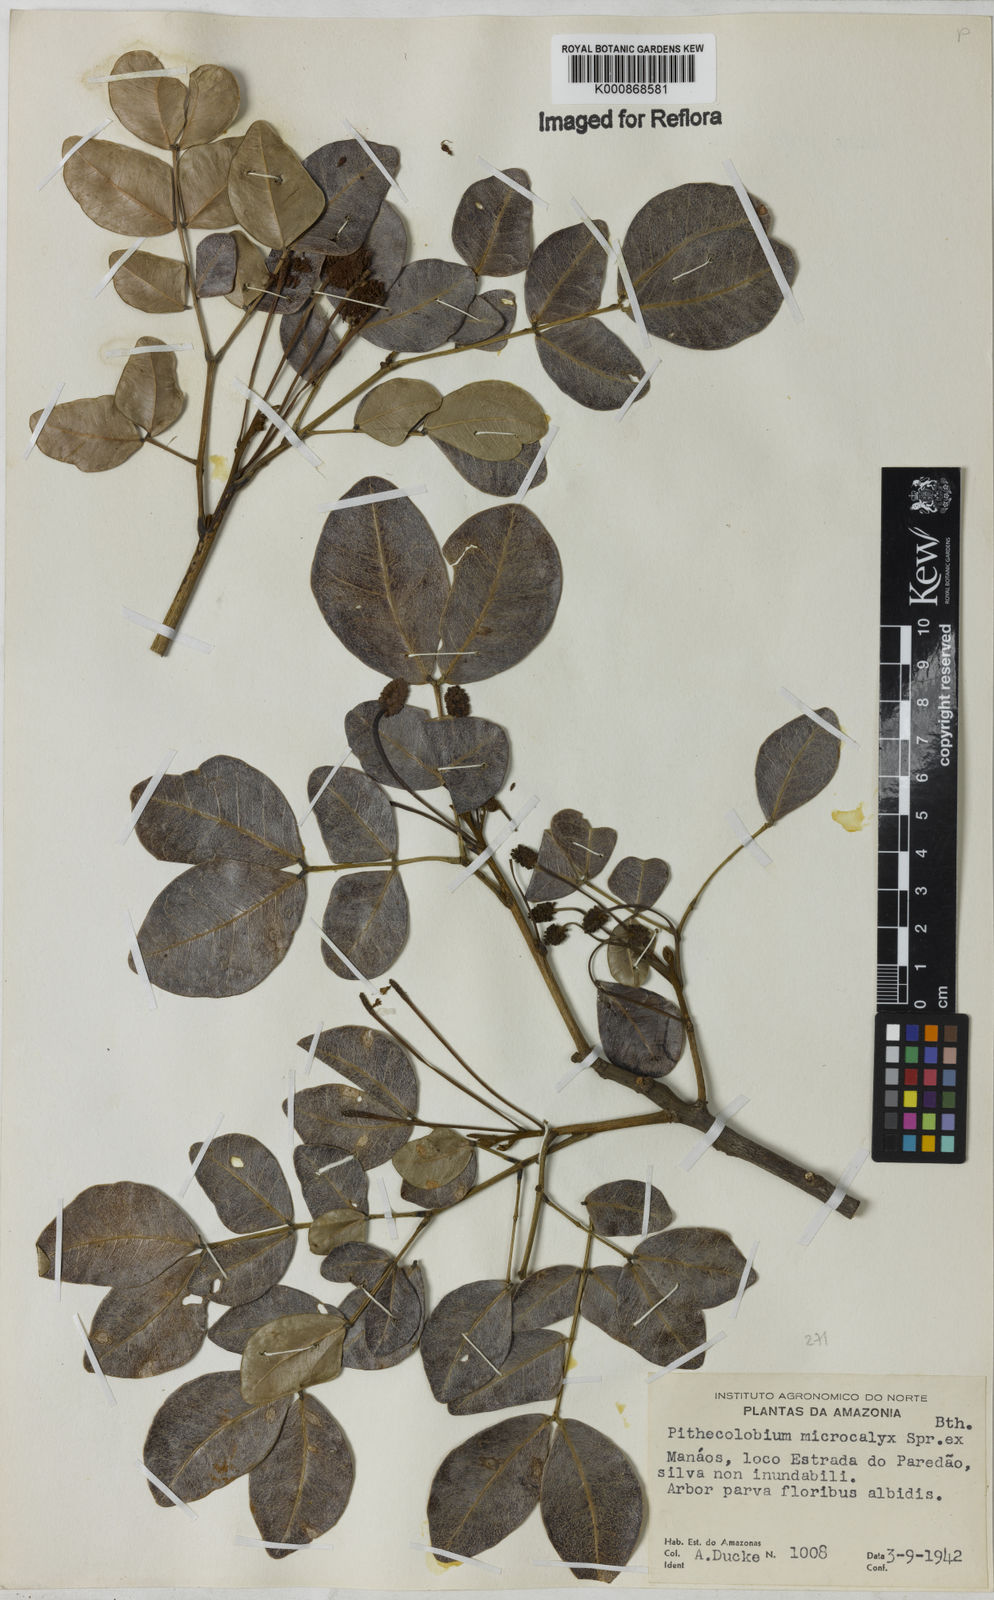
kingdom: Plantae
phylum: Tracheophyta
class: Magnoliopsida
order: Fabales
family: Fabaceae
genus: Jupunba
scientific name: Jupunba microcalyx
